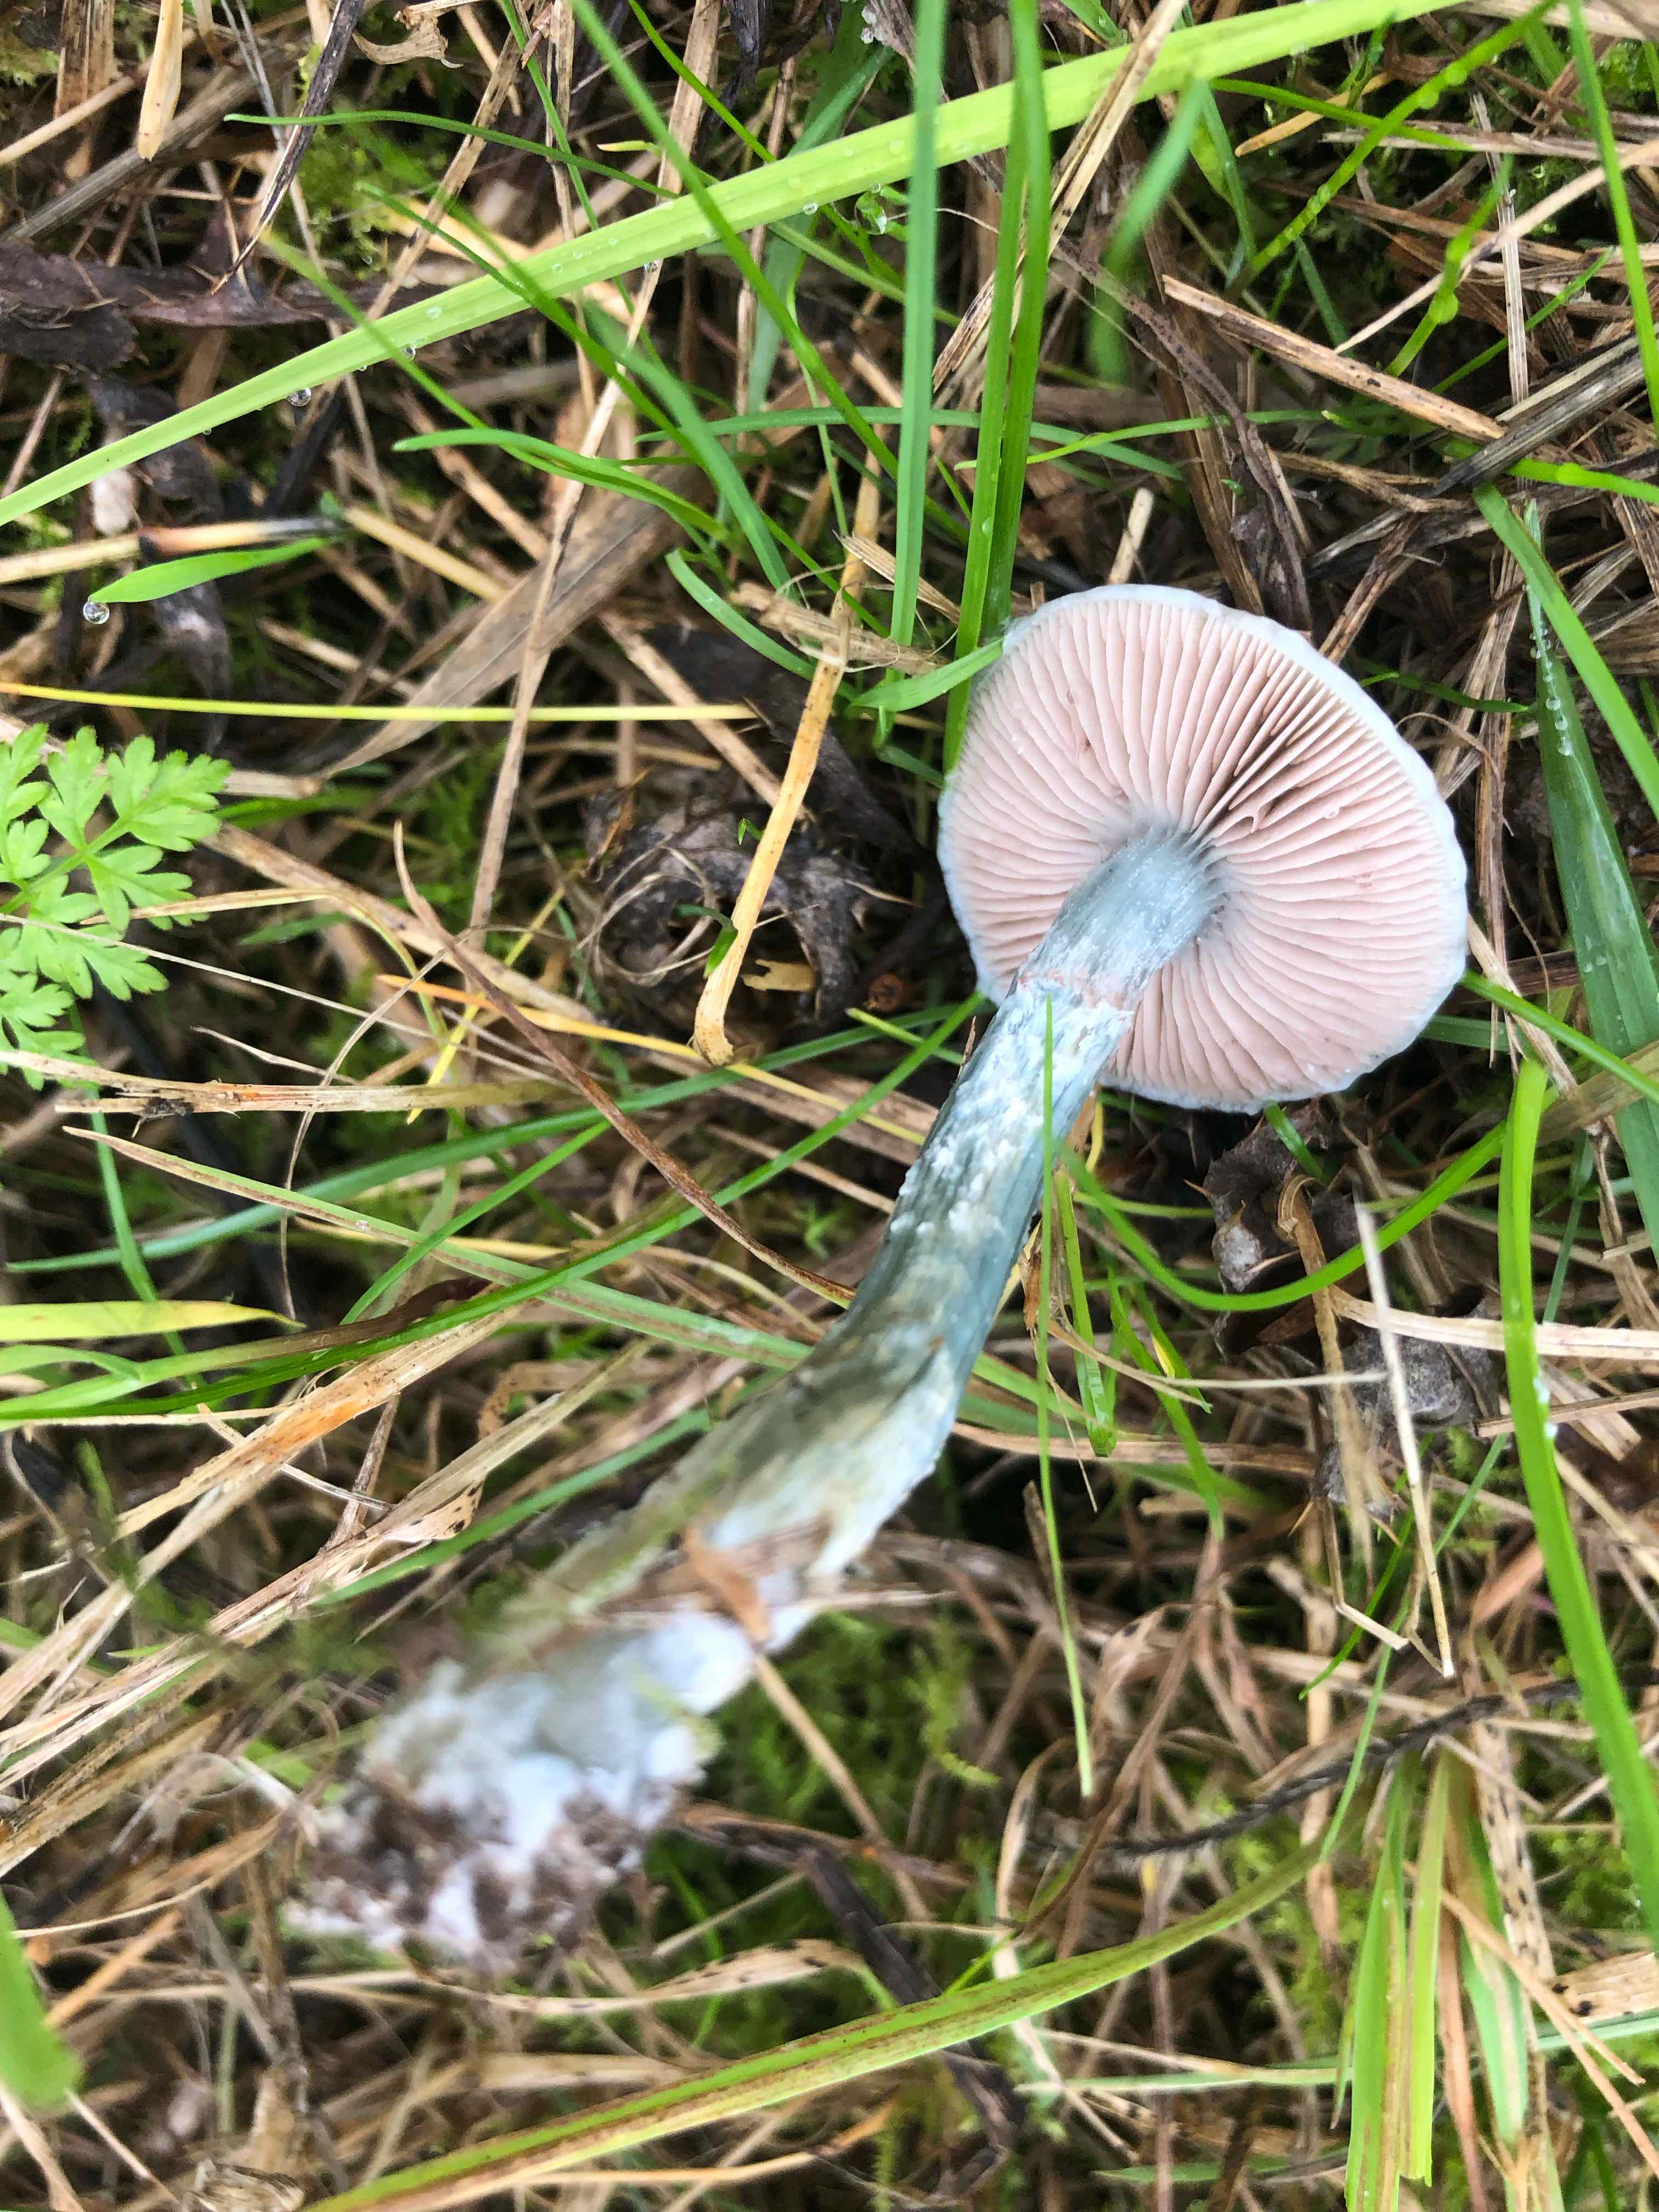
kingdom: Fungi
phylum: Basidiomycota
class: Agaricomycetes
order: Agaricales
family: Strophariaceae
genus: Stropharia
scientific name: Stropharia
